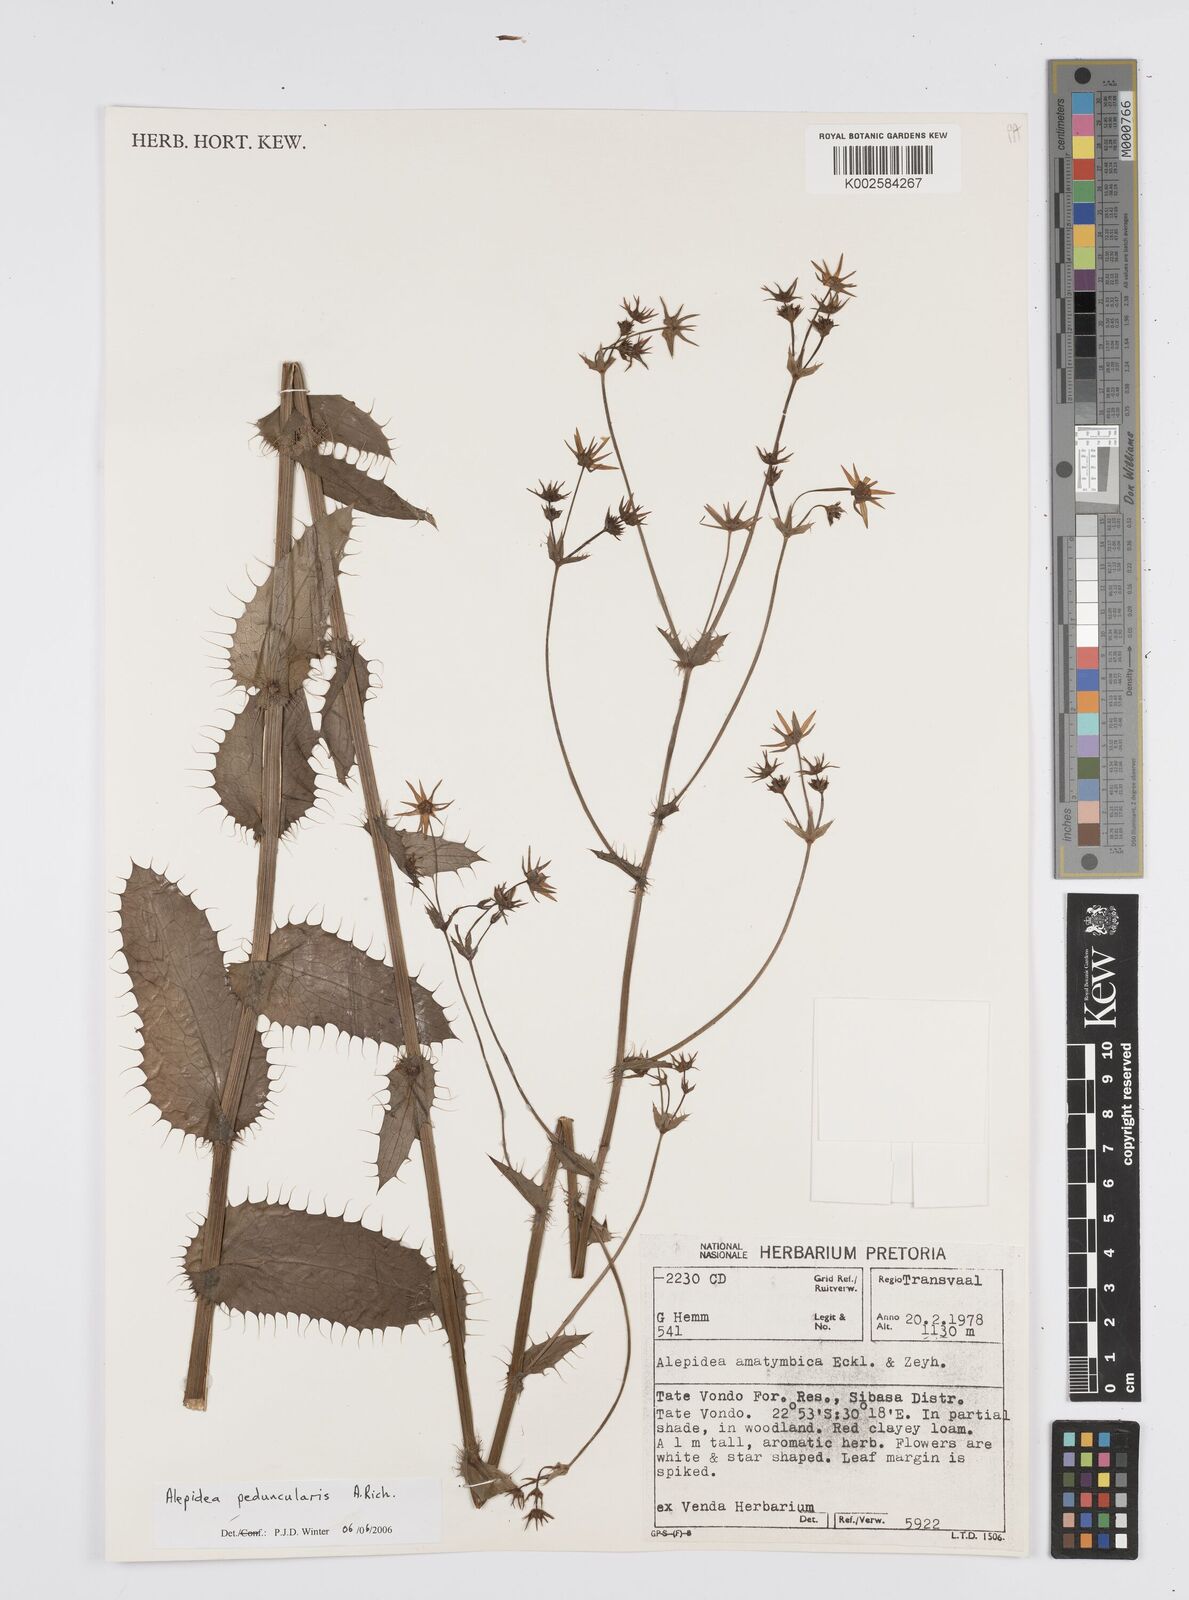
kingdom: Plantae
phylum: Tracheophyta
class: Magnoliopsida
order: Apiales
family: Apiaceae
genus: Alepidea
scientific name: Alepidea peduncularis
